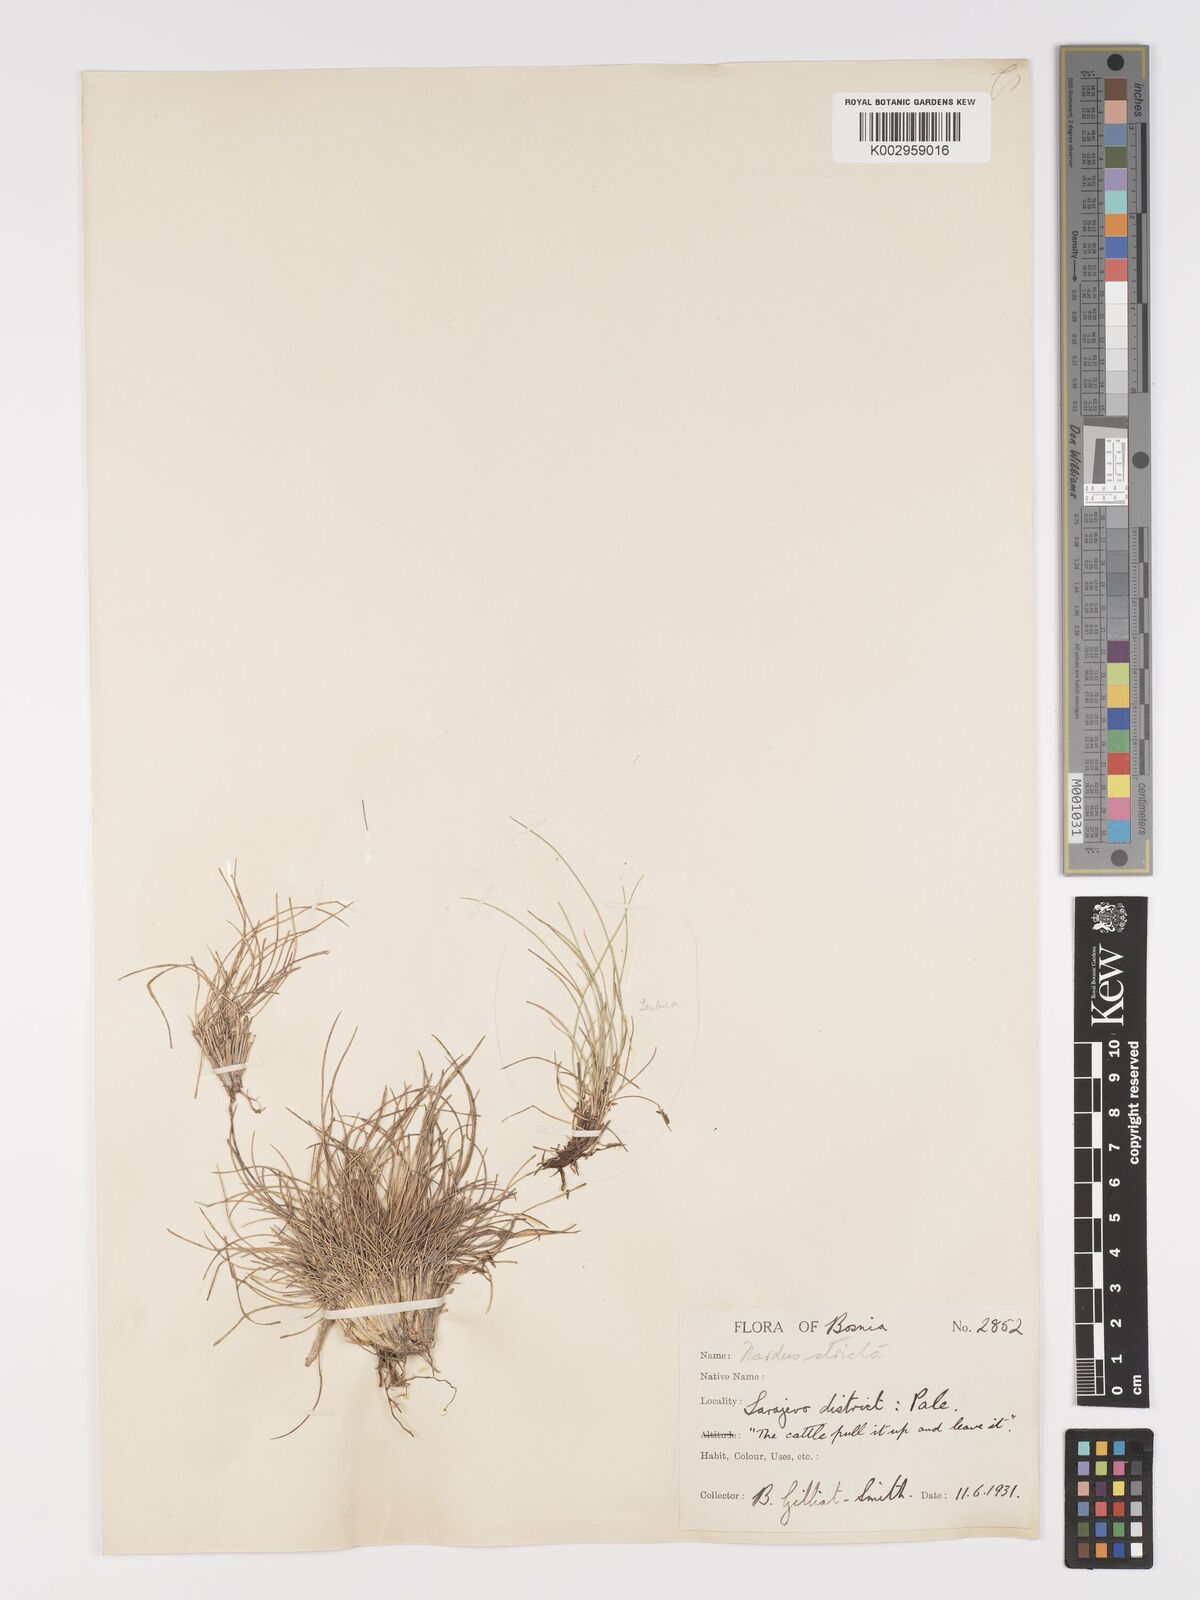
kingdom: Plantae
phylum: Tracheophyta
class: Liliopsida
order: Poales
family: Poaceae
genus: Nardus
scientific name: Nardus stricta
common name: Mat-grass
